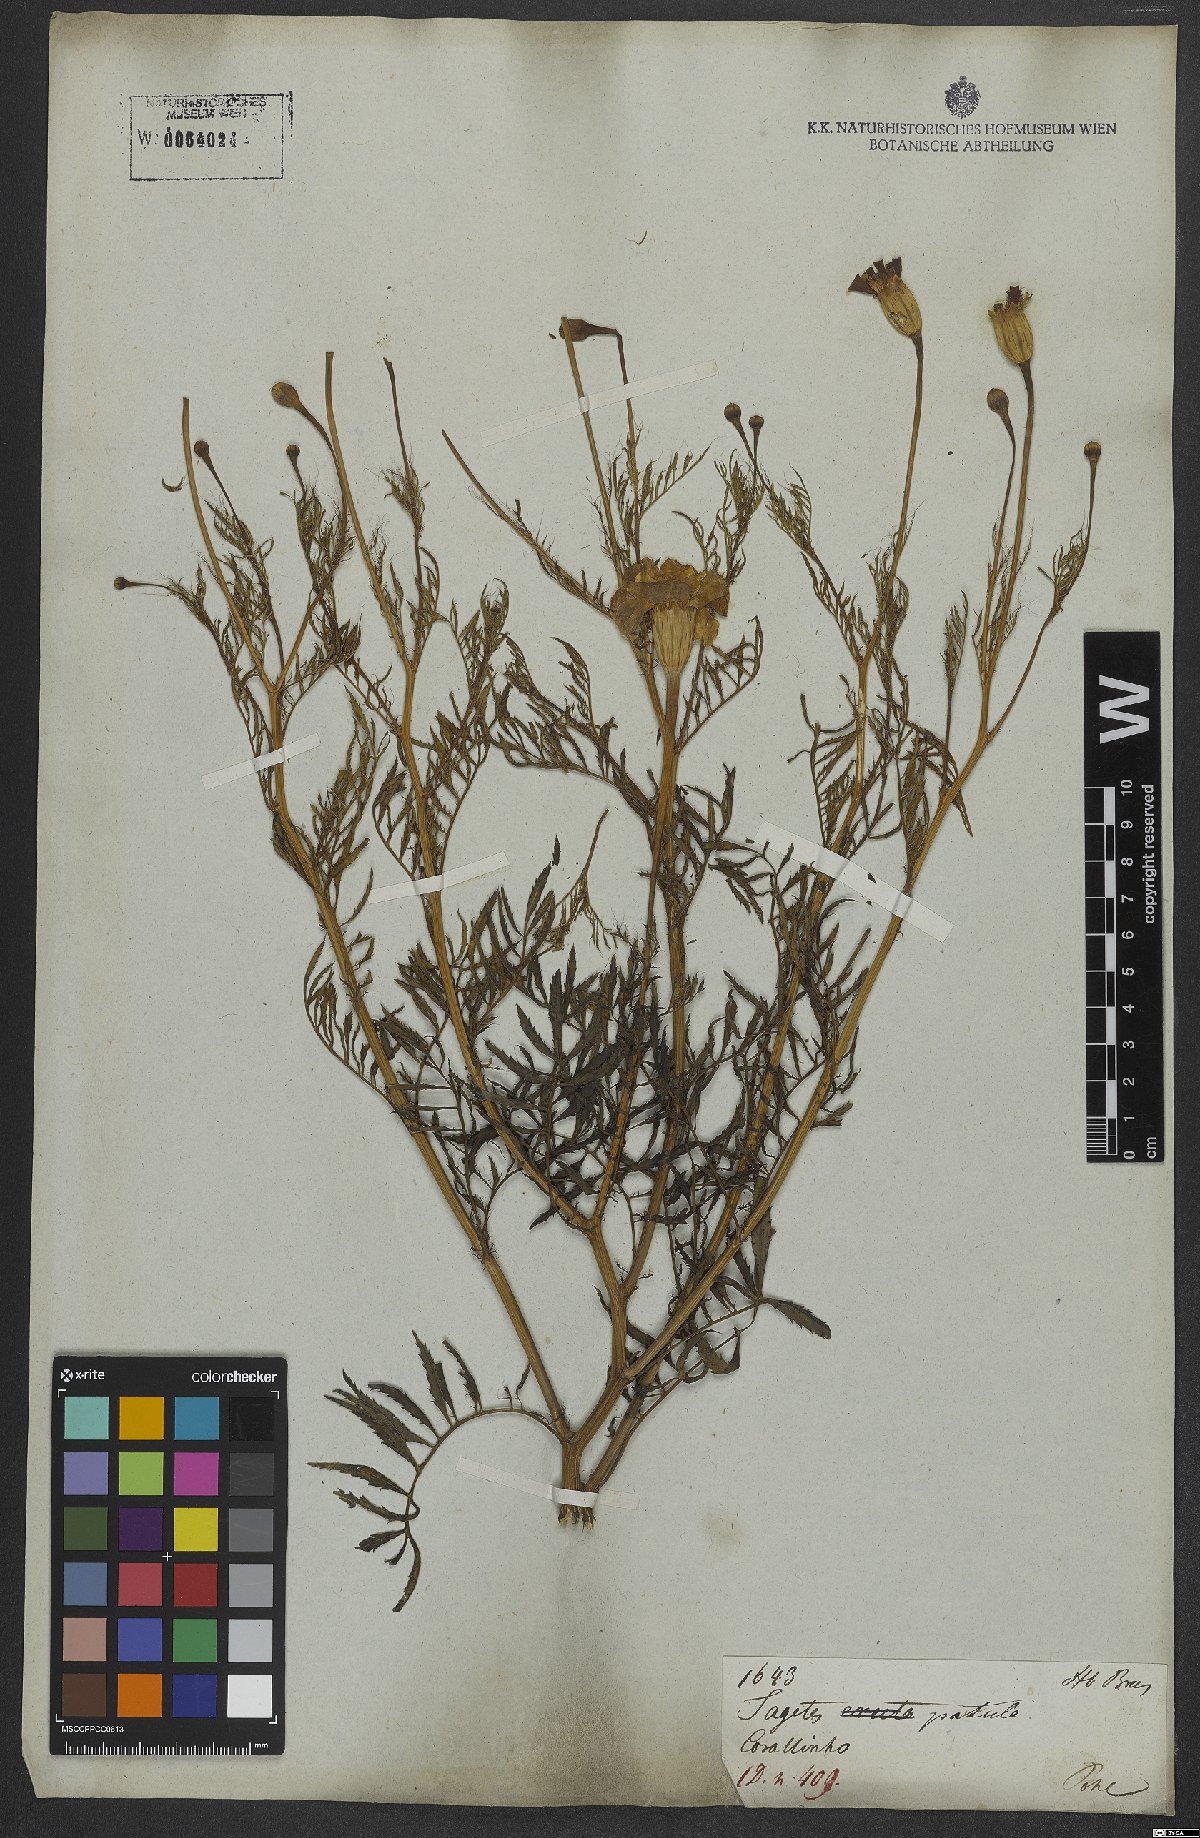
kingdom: Plantae
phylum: Tracheophyta
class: Magnoliopsida
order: Asterales
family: Asteraceae
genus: Tagetes
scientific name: Tagetes erecta
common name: African marigold
